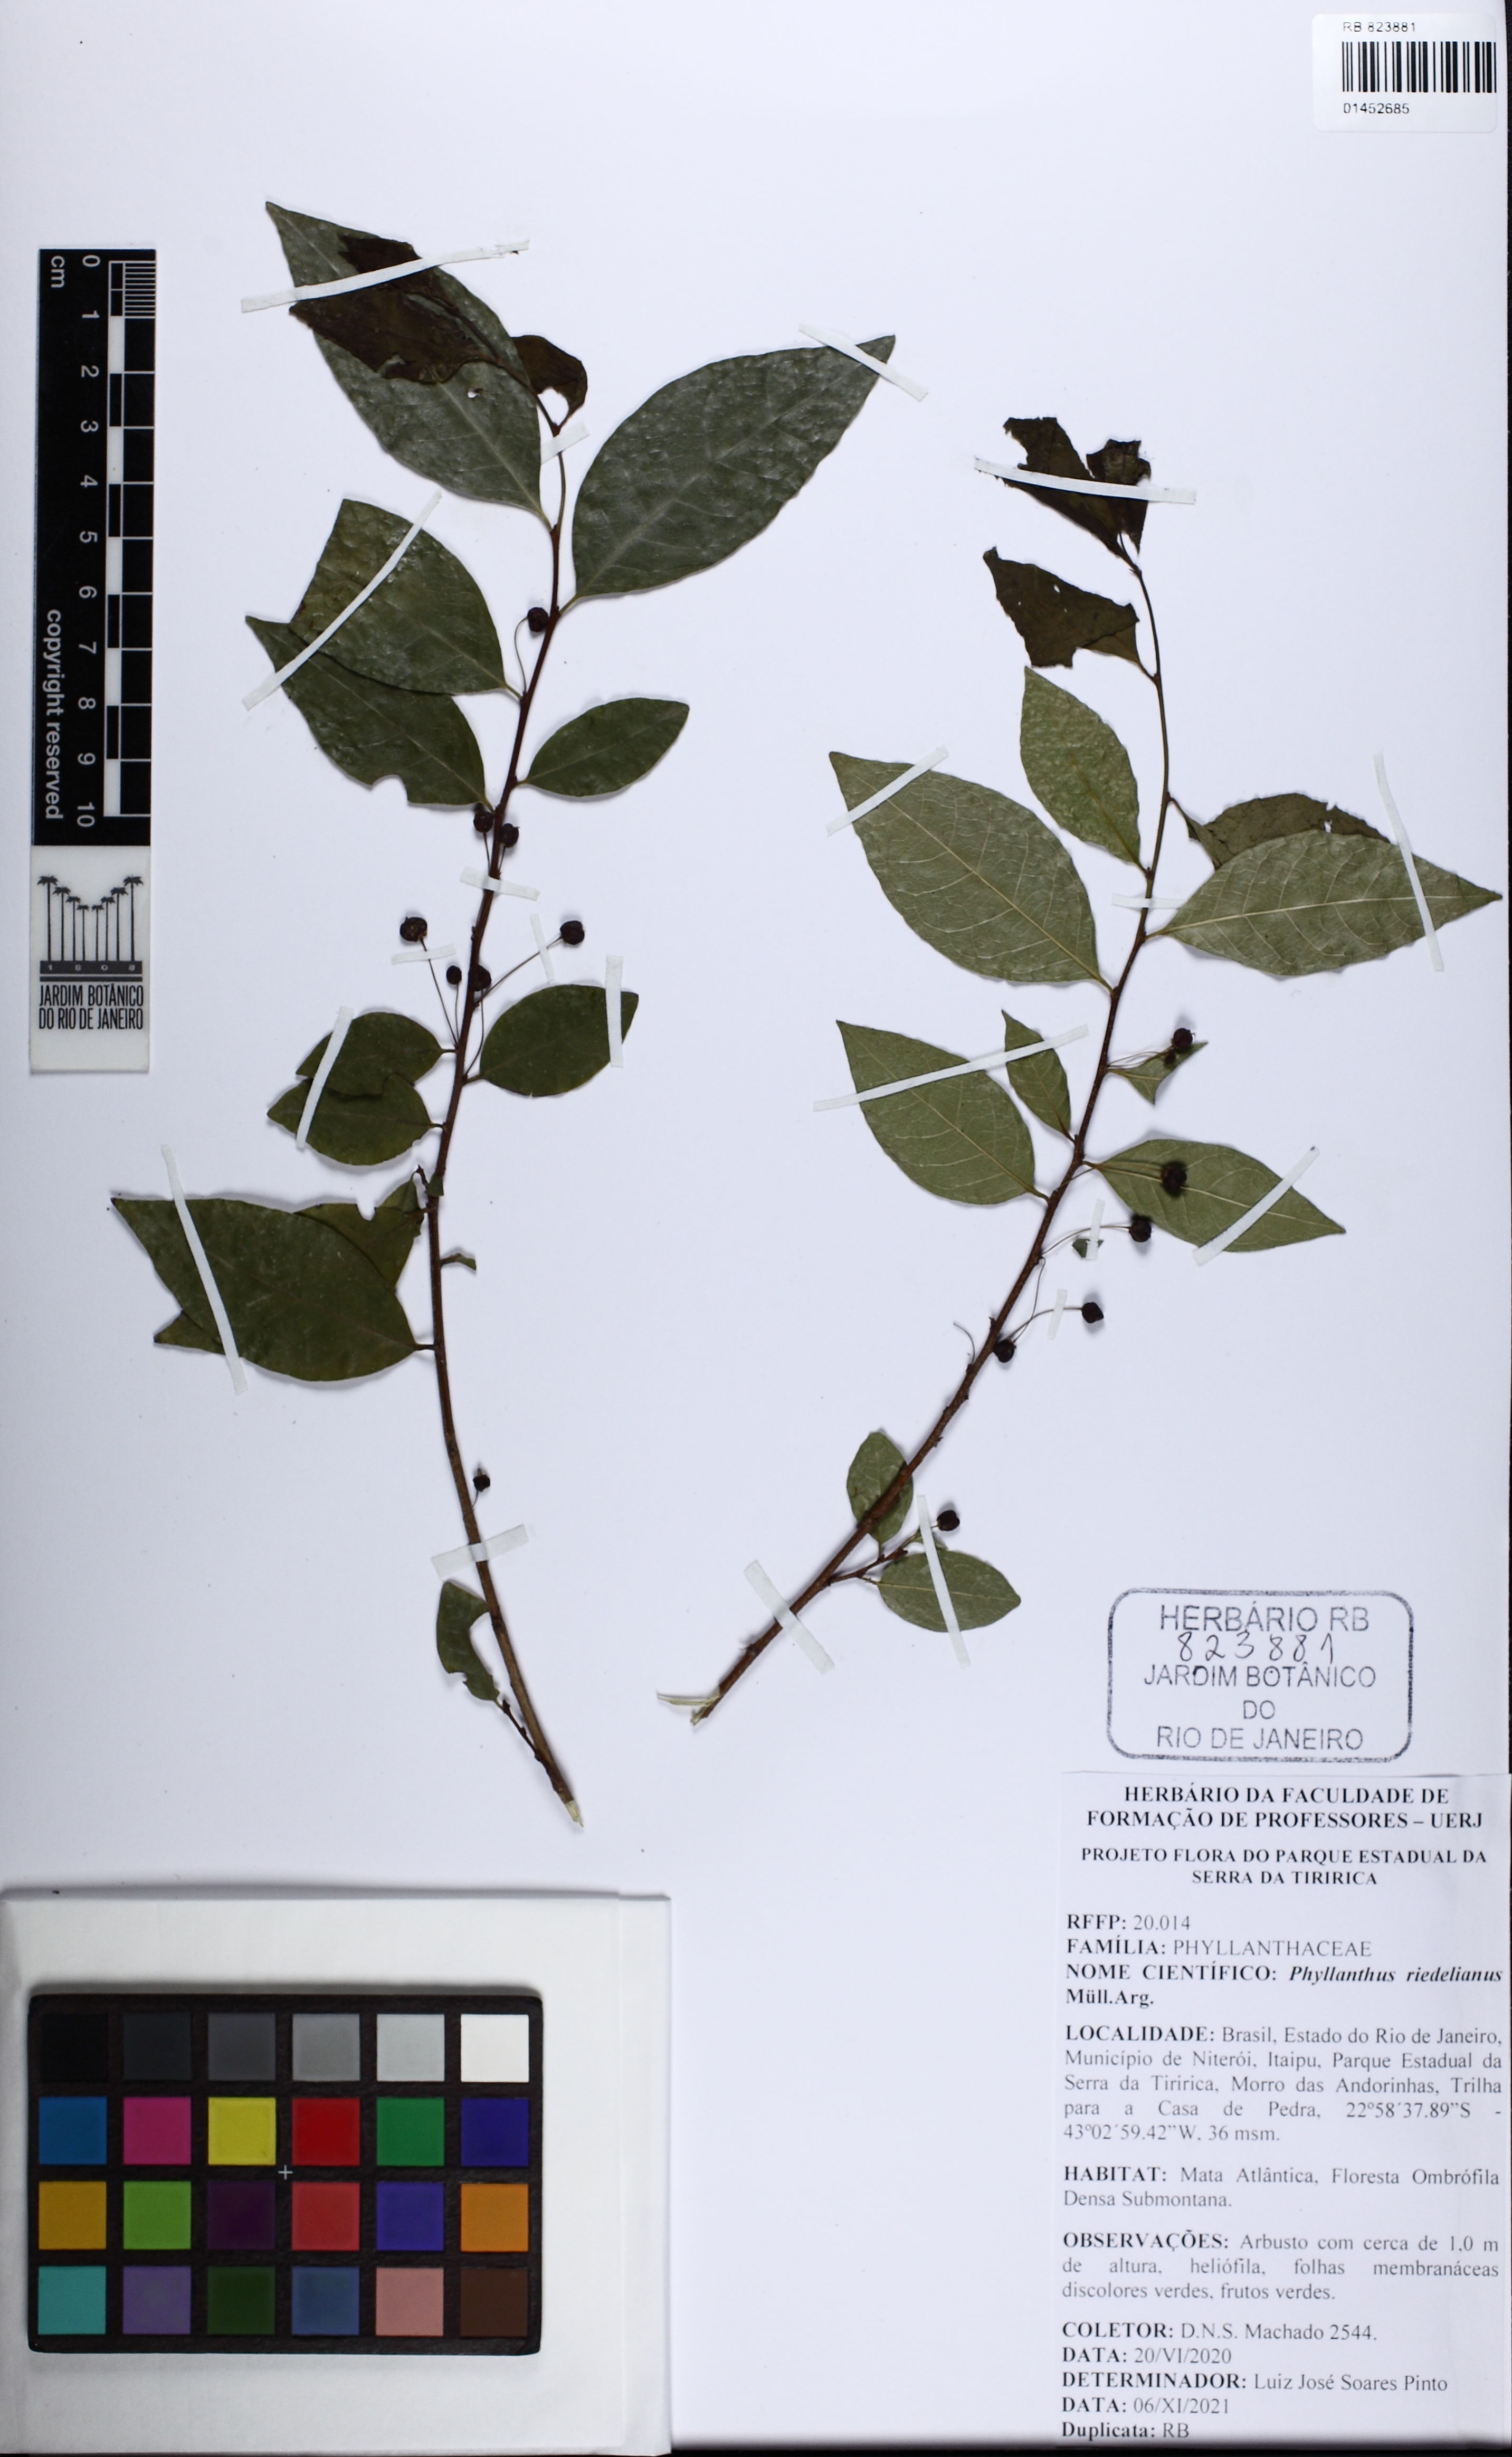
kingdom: Plantae
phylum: Tracheophyta
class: Magnoliopsida
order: Malpighiales
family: Phyllanthaceae
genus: Phyllanthus
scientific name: Phyllanthus riedelianus
